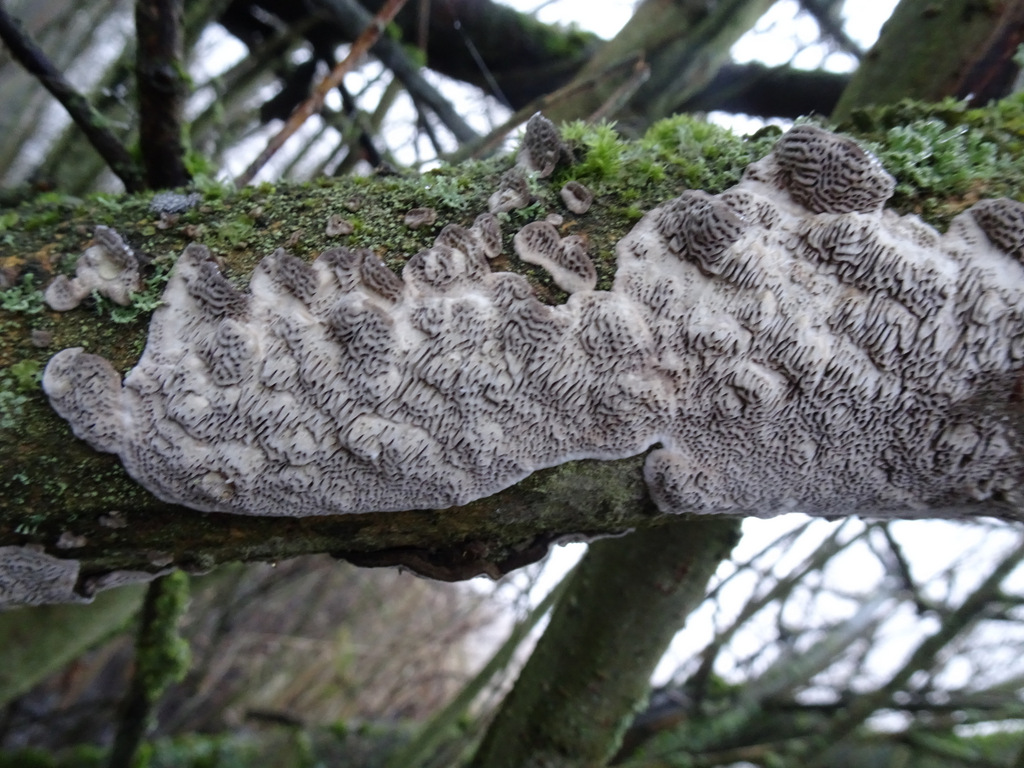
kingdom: Fungi
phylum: Basidiomycota
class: Agaricomycetes
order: Polyporales
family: Polyporaceae
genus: Podofomes
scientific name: Podofomes mollis
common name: blød begporesvamp
